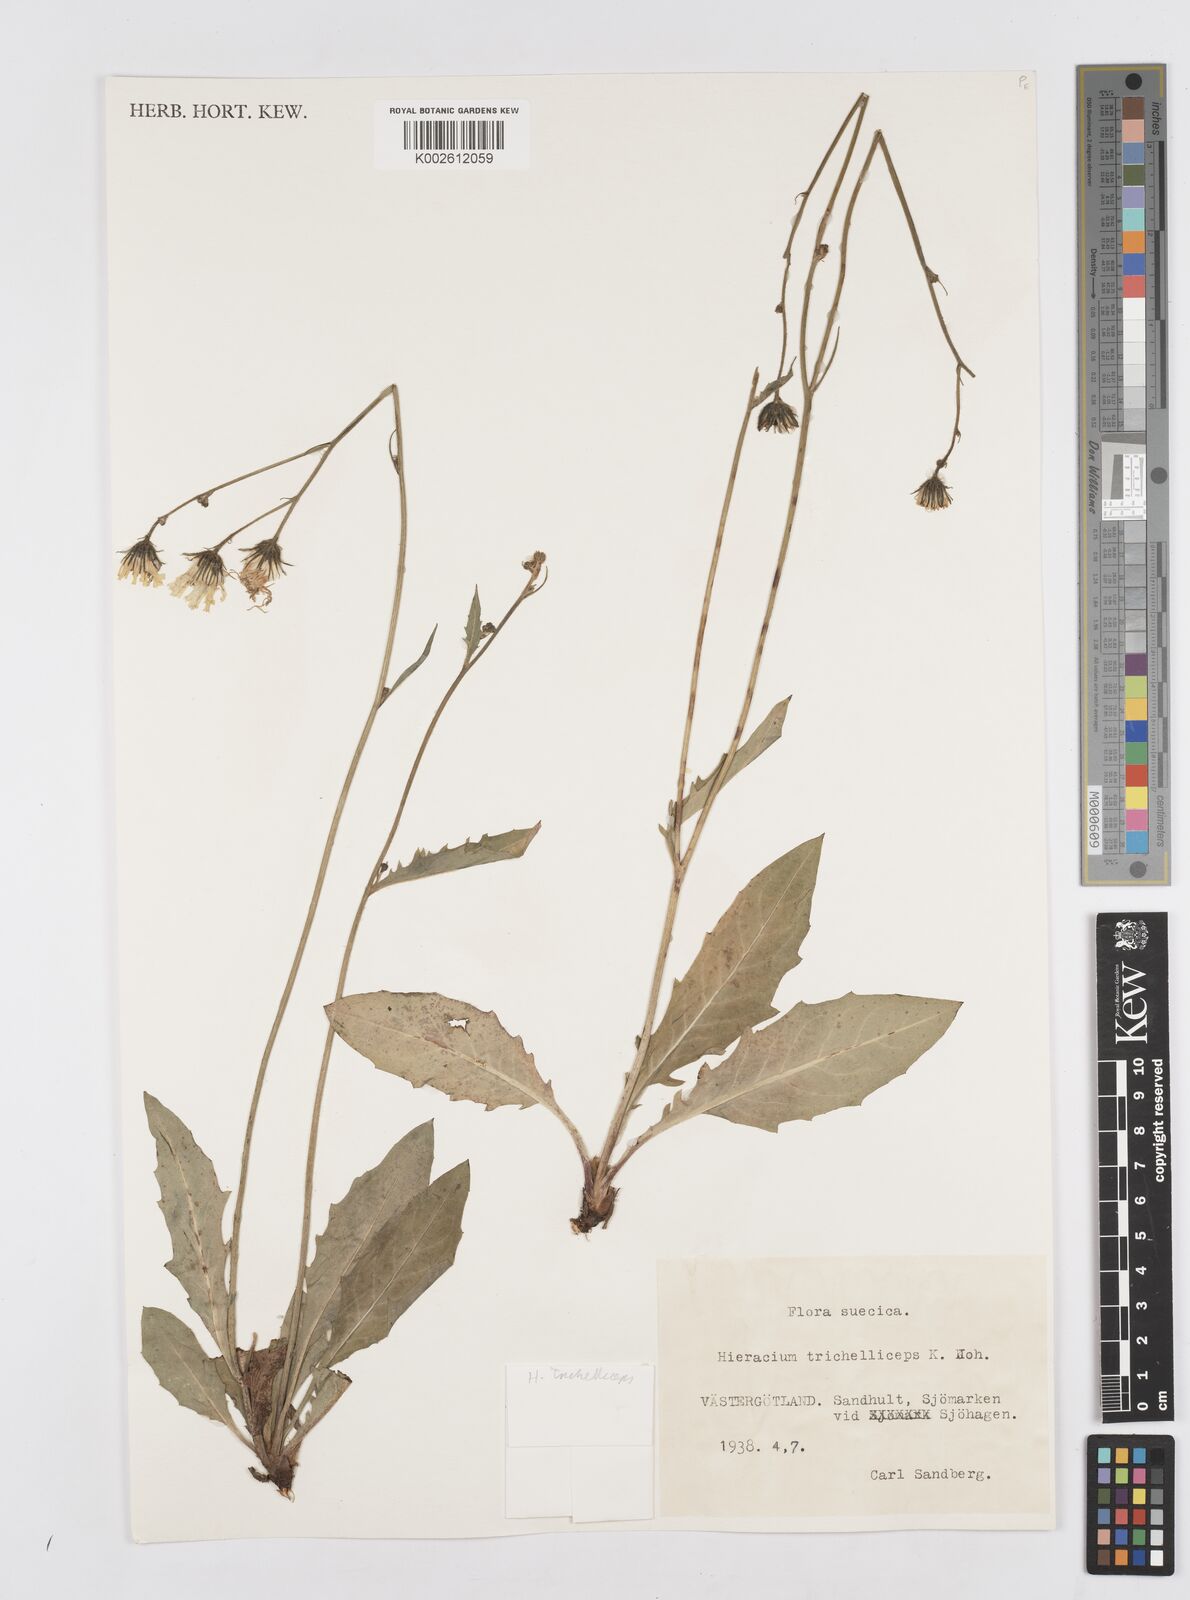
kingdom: Plantae
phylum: Tracheophyta
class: Magnoliopsida
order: Asterales
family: Asteraceae
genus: Hieracium
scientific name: Hieracium trichelliceps
